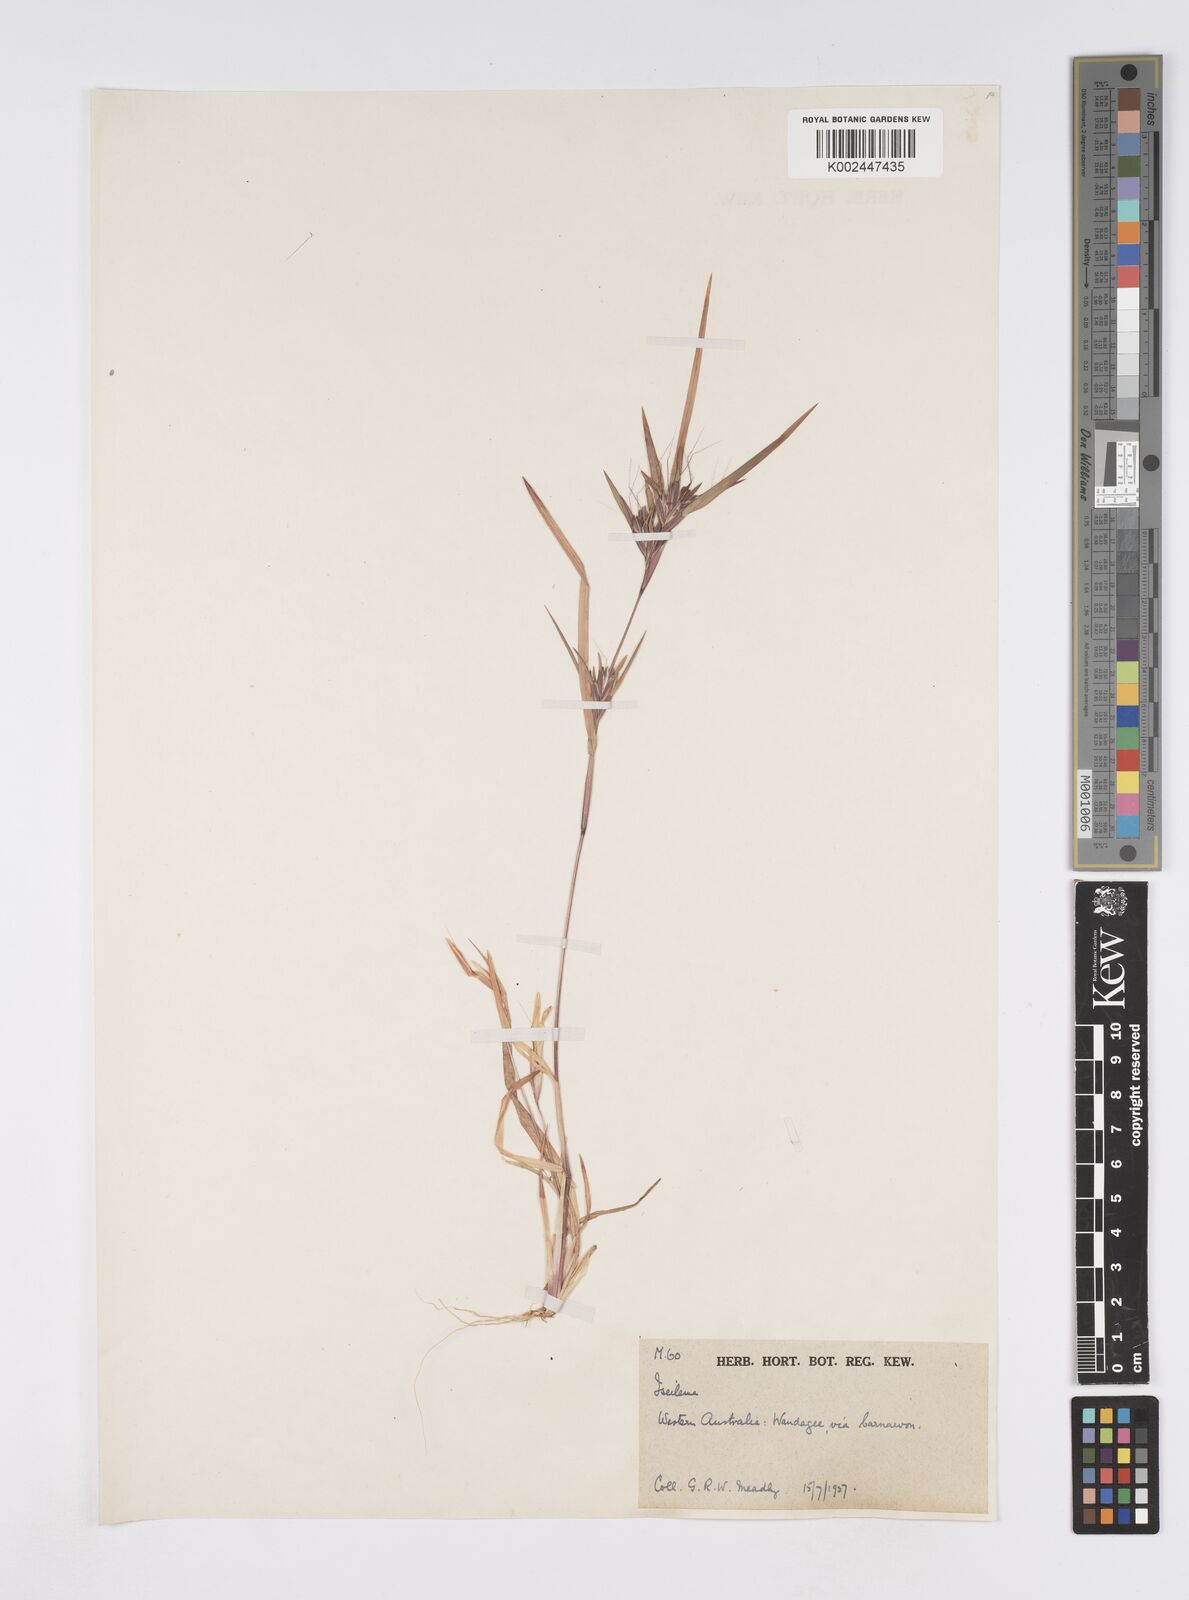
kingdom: Plantae
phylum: Tracheophyta
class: Liliopsida
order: Poales
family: Poaceae
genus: Iseilema
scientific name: Iseilema
